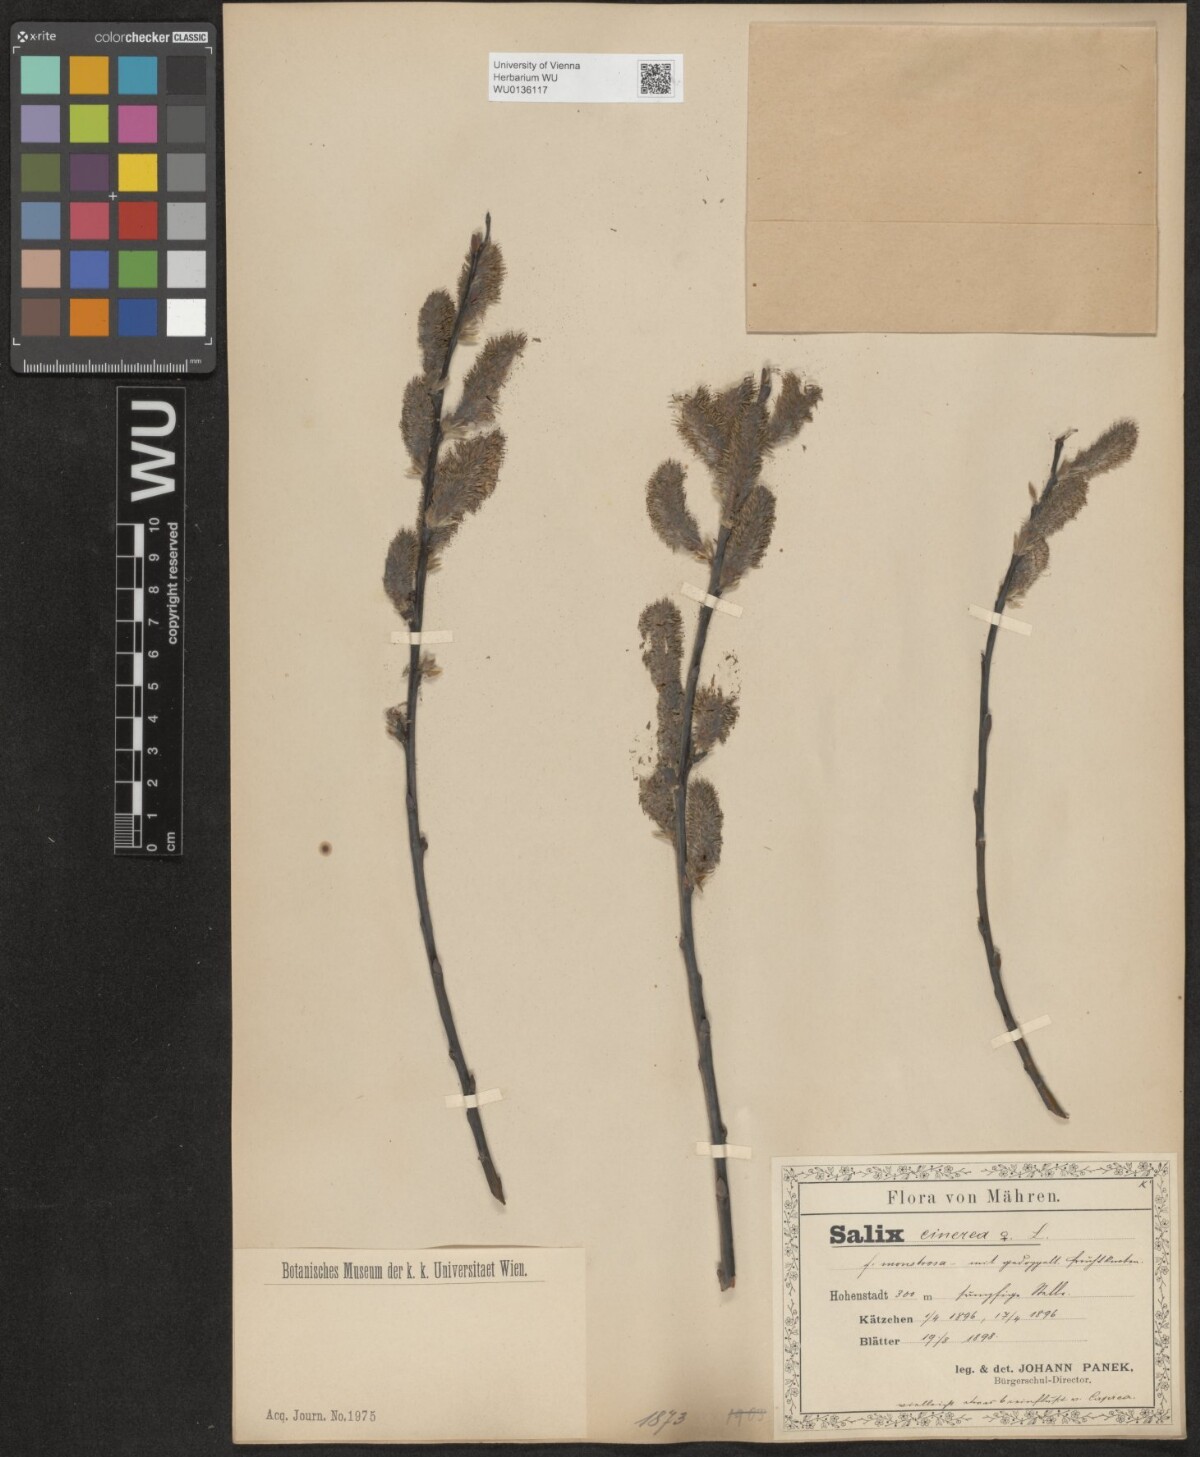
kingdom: Plantae
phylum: Tracheophyta
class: Magnoliopsida
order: Malpighiales
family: Salicaceae
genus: Salix
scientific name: Salix cinerea
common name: Common sallow
